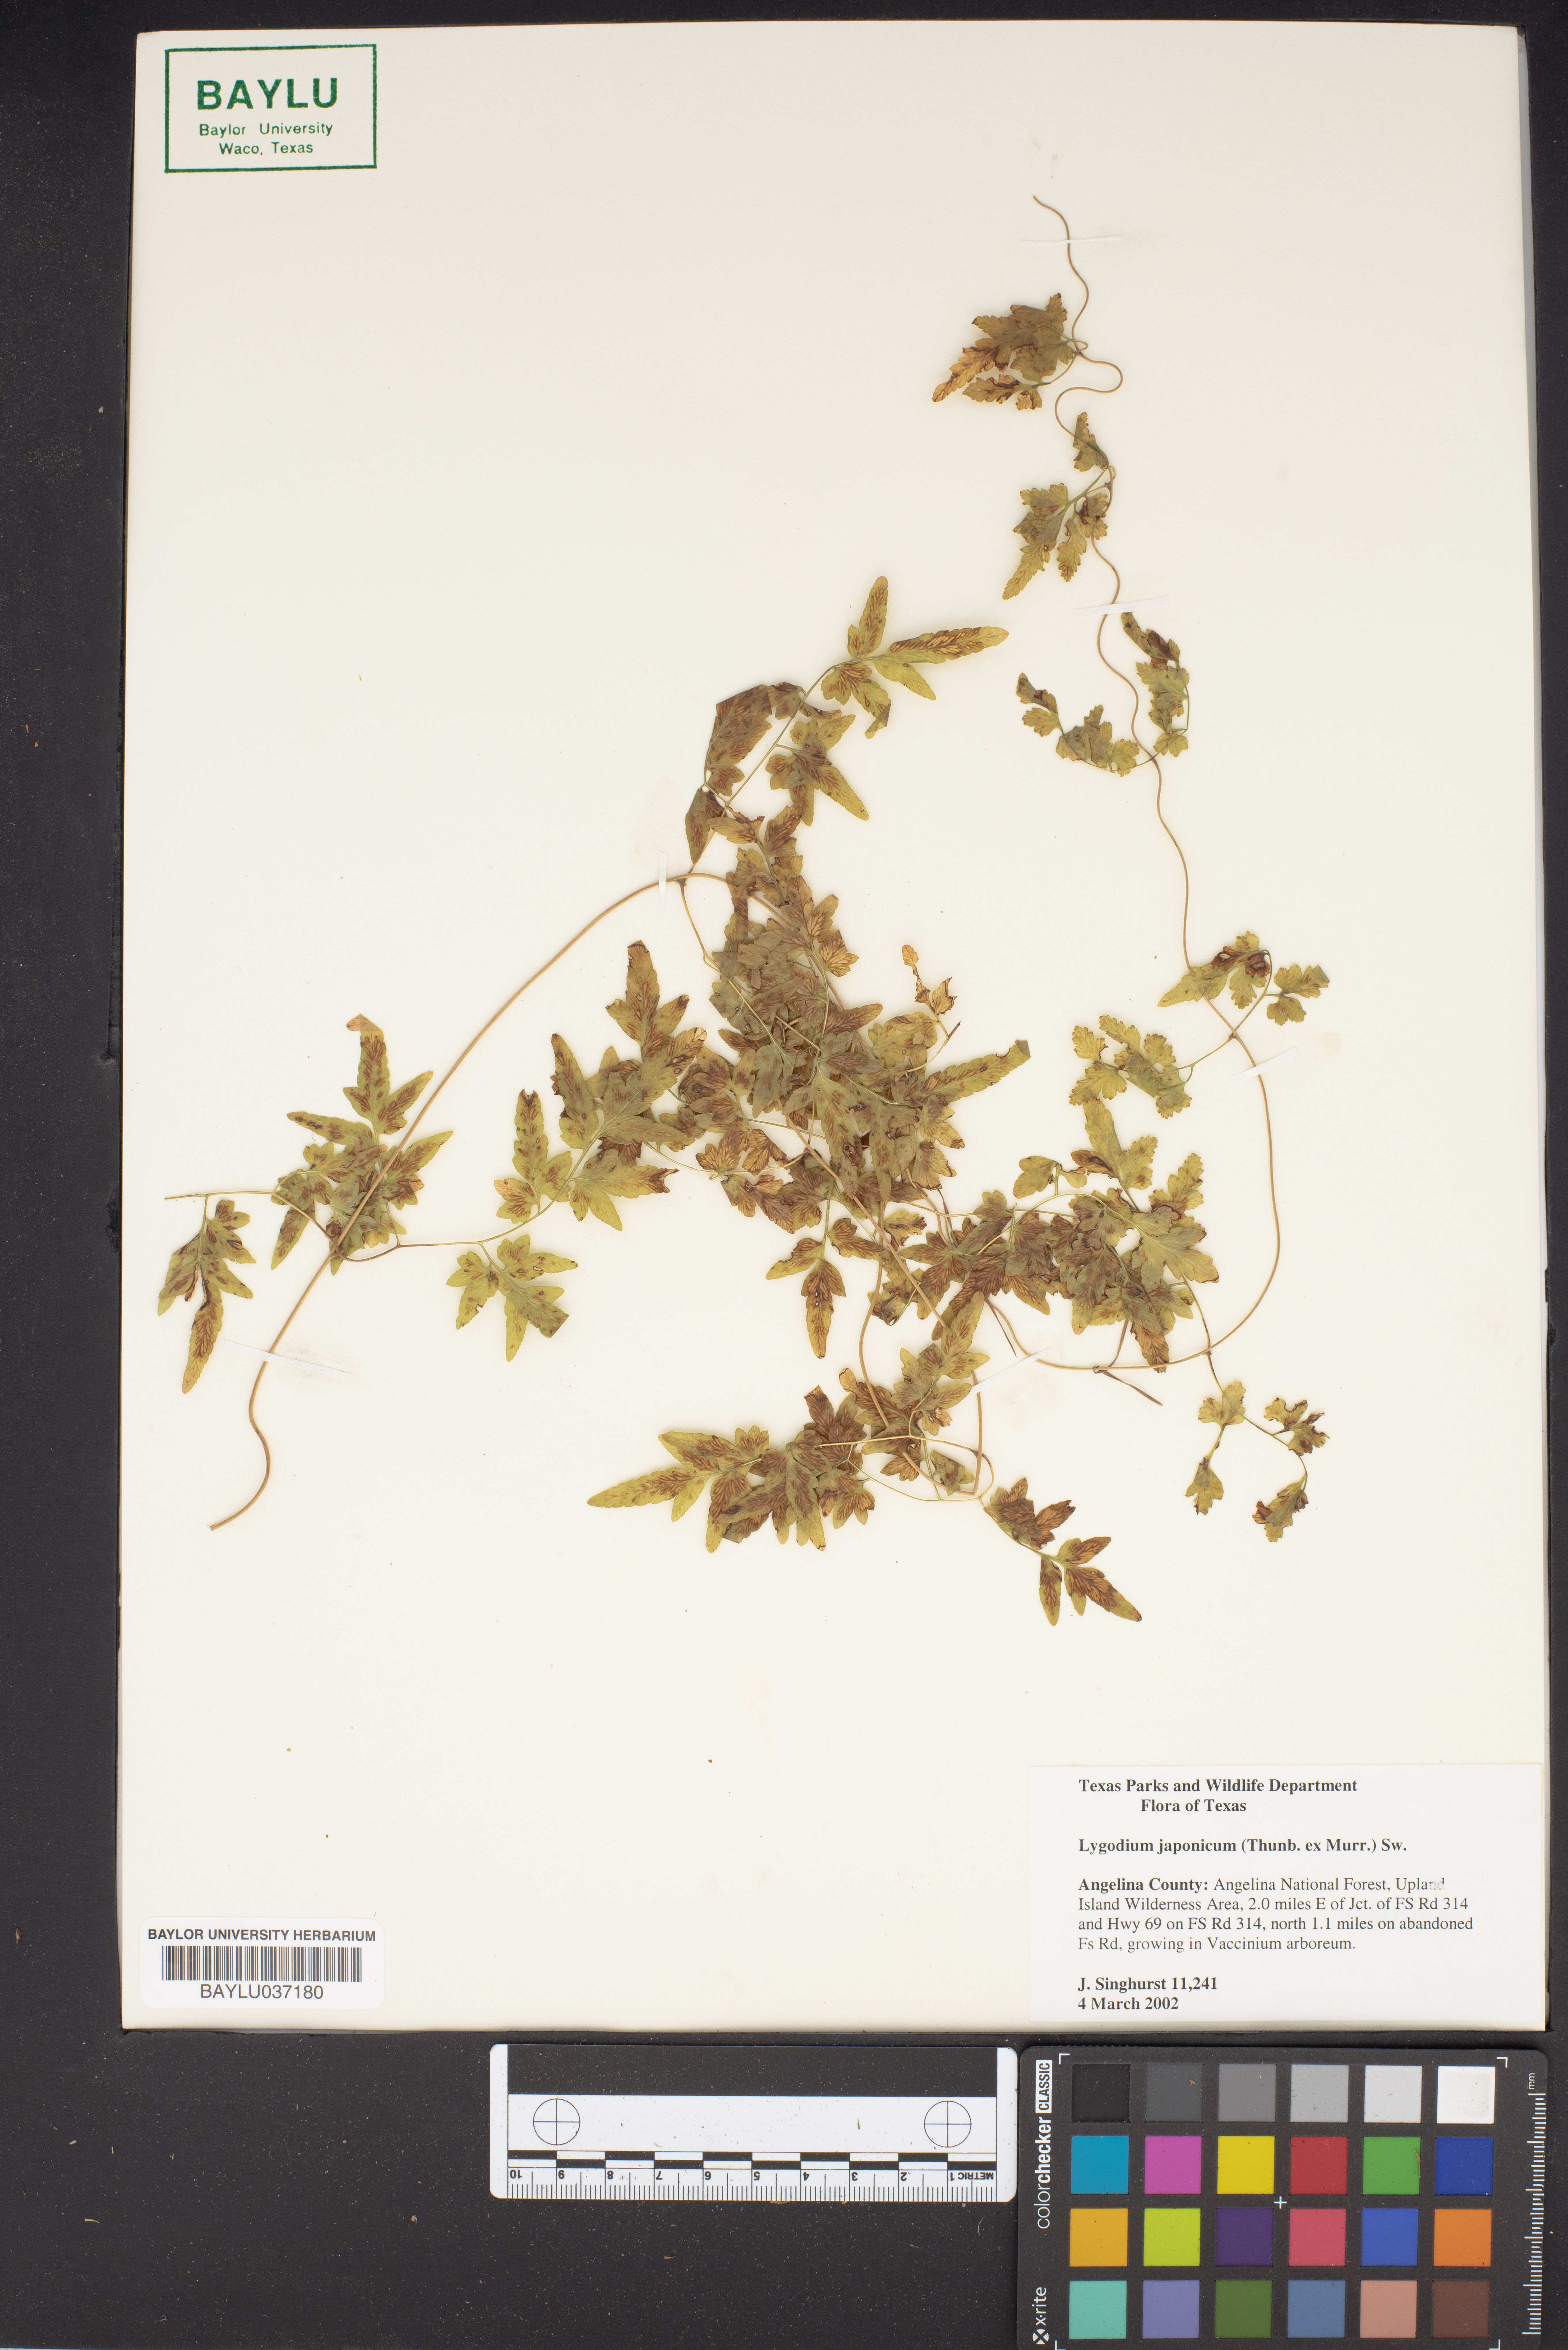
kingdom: Plantae
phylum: Tracheophyta
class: Polypodiopsida
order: Schizaeales
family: Lygodiaceae
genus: Lygodium
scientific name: Lygodium japonicum
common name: Japanese climbing fern
